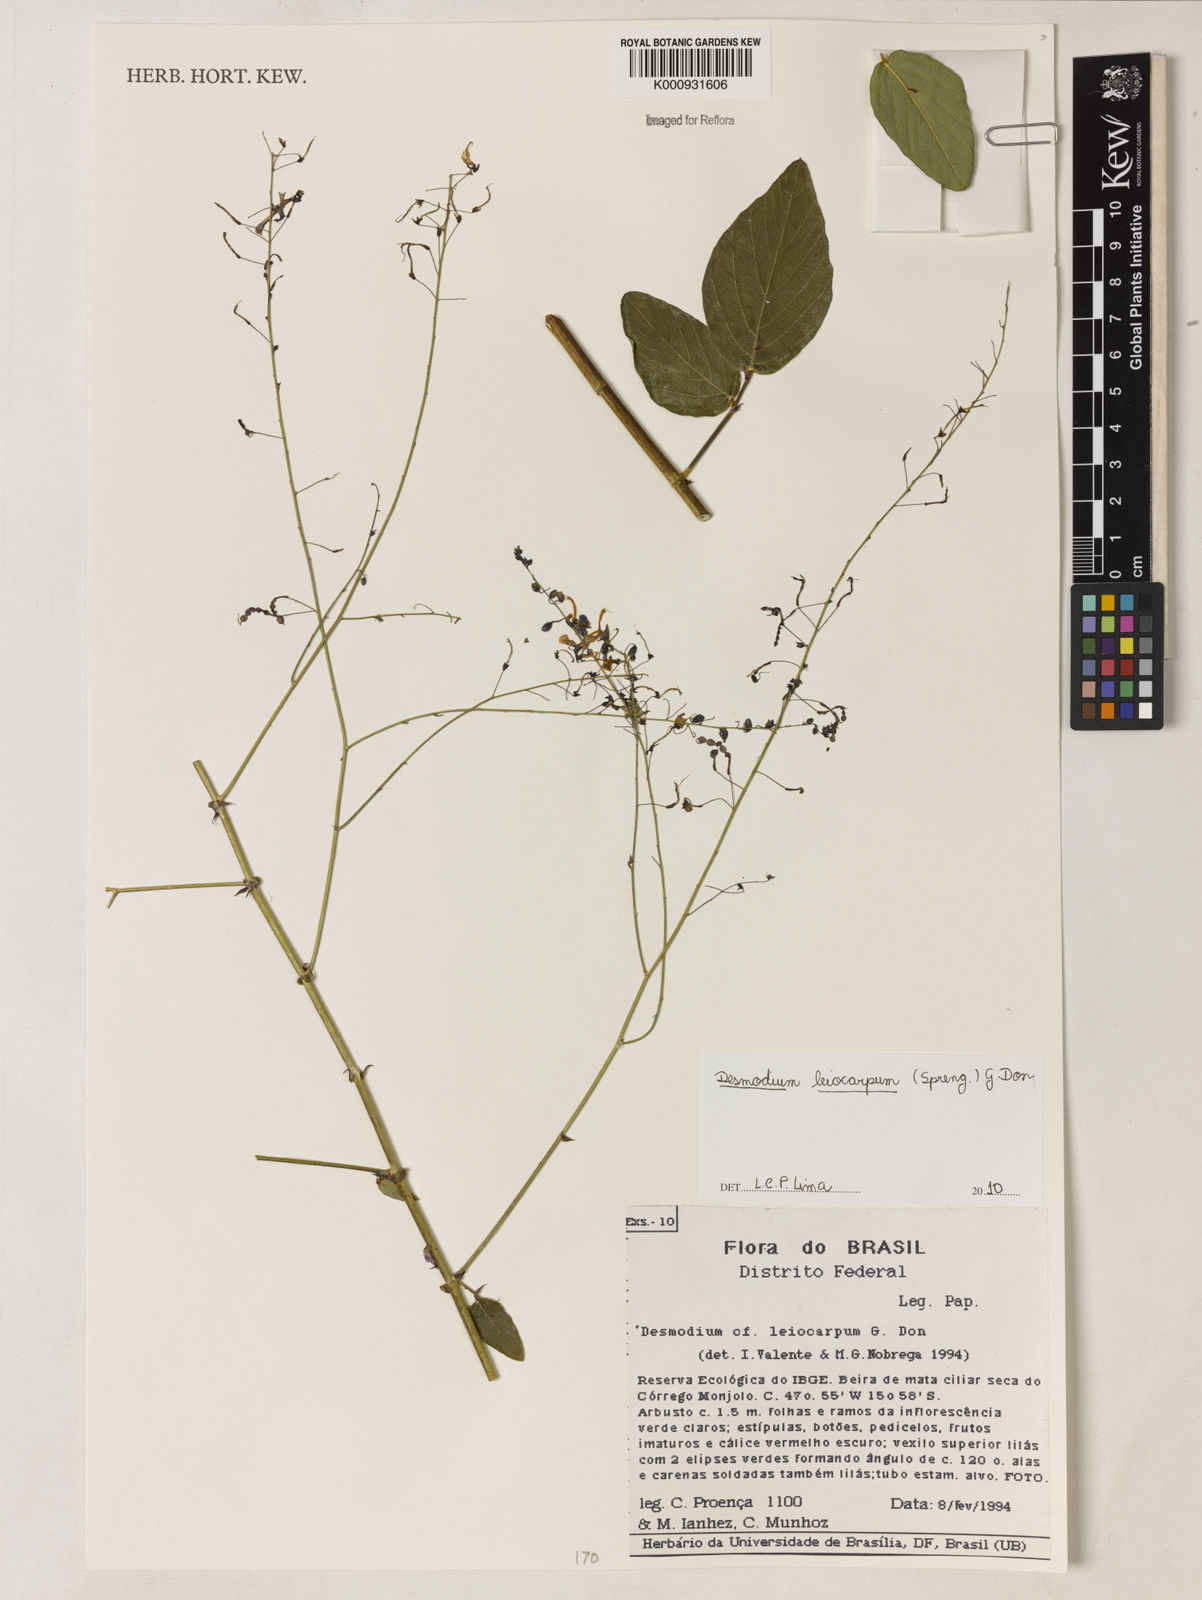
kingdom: Plantae
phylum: Tracheophyta
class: Magnoliopsida
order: Fabales
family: Fabaceae
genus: Desmodium
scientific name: Desmodium leiocarpum
